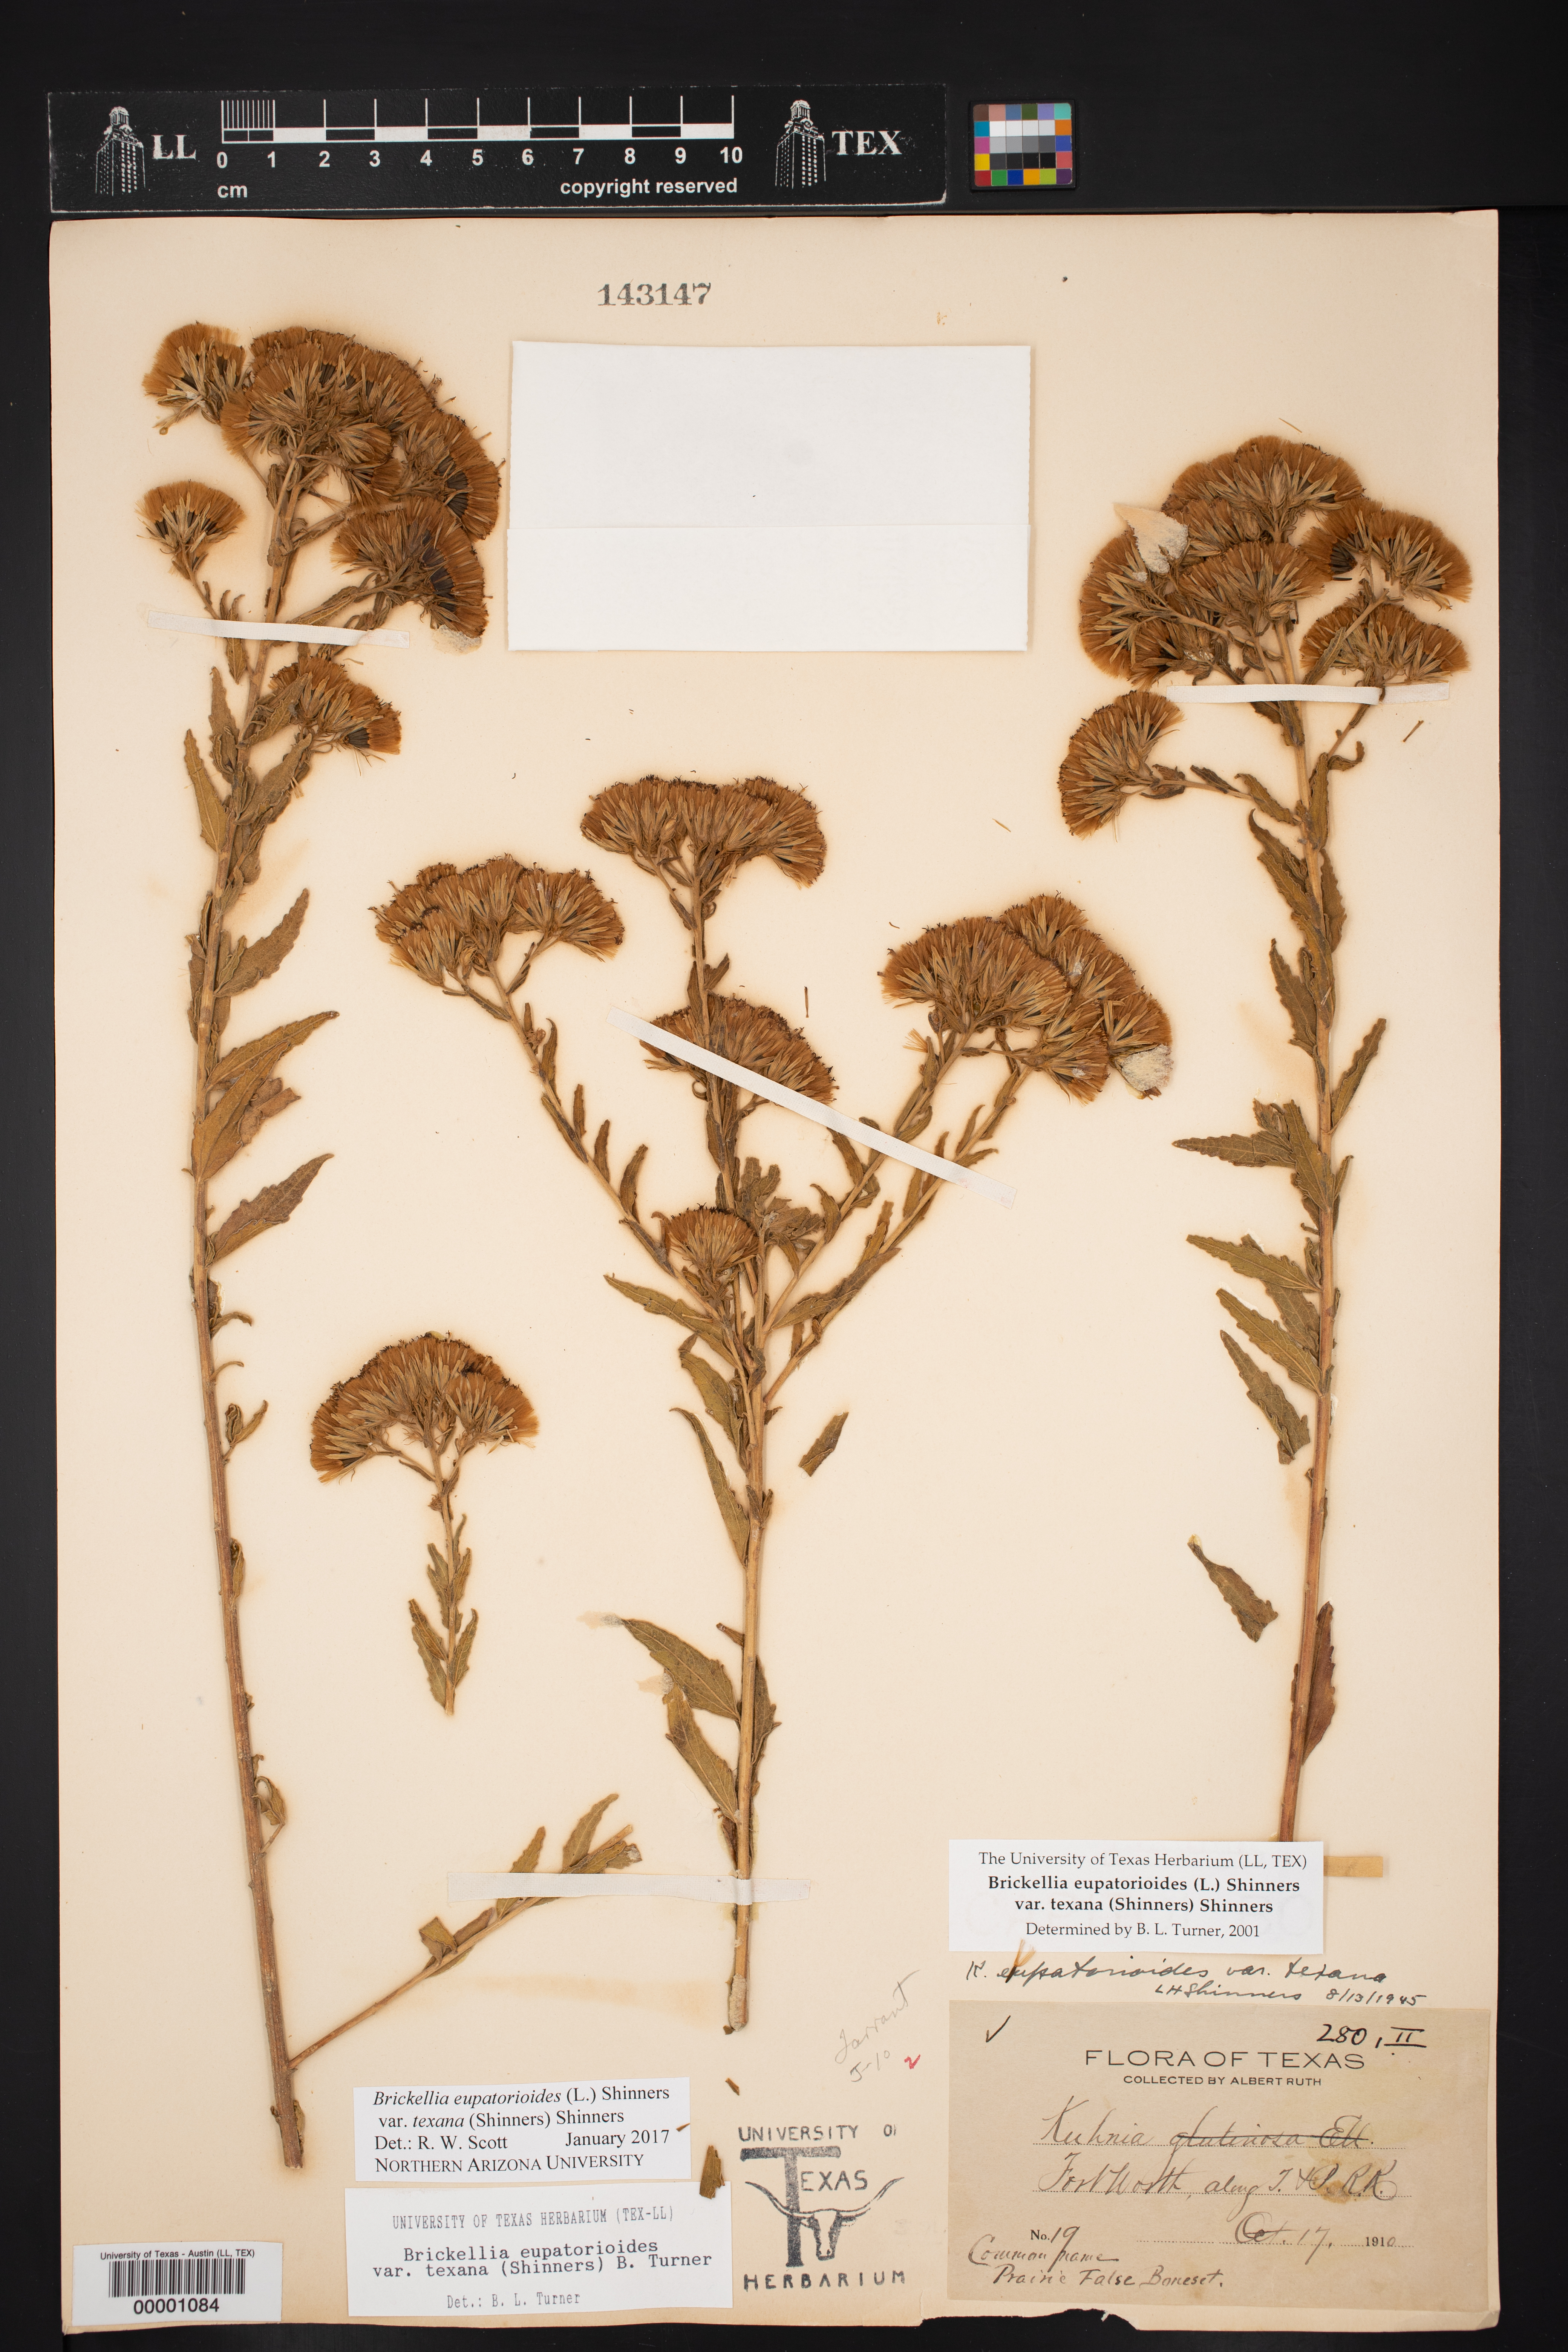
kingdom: Plantae
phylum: Tracheophyta
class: Magnoliopsida
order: Asterales
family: Asteraceae
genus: Brickellia
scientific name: Brickellia macranthra
